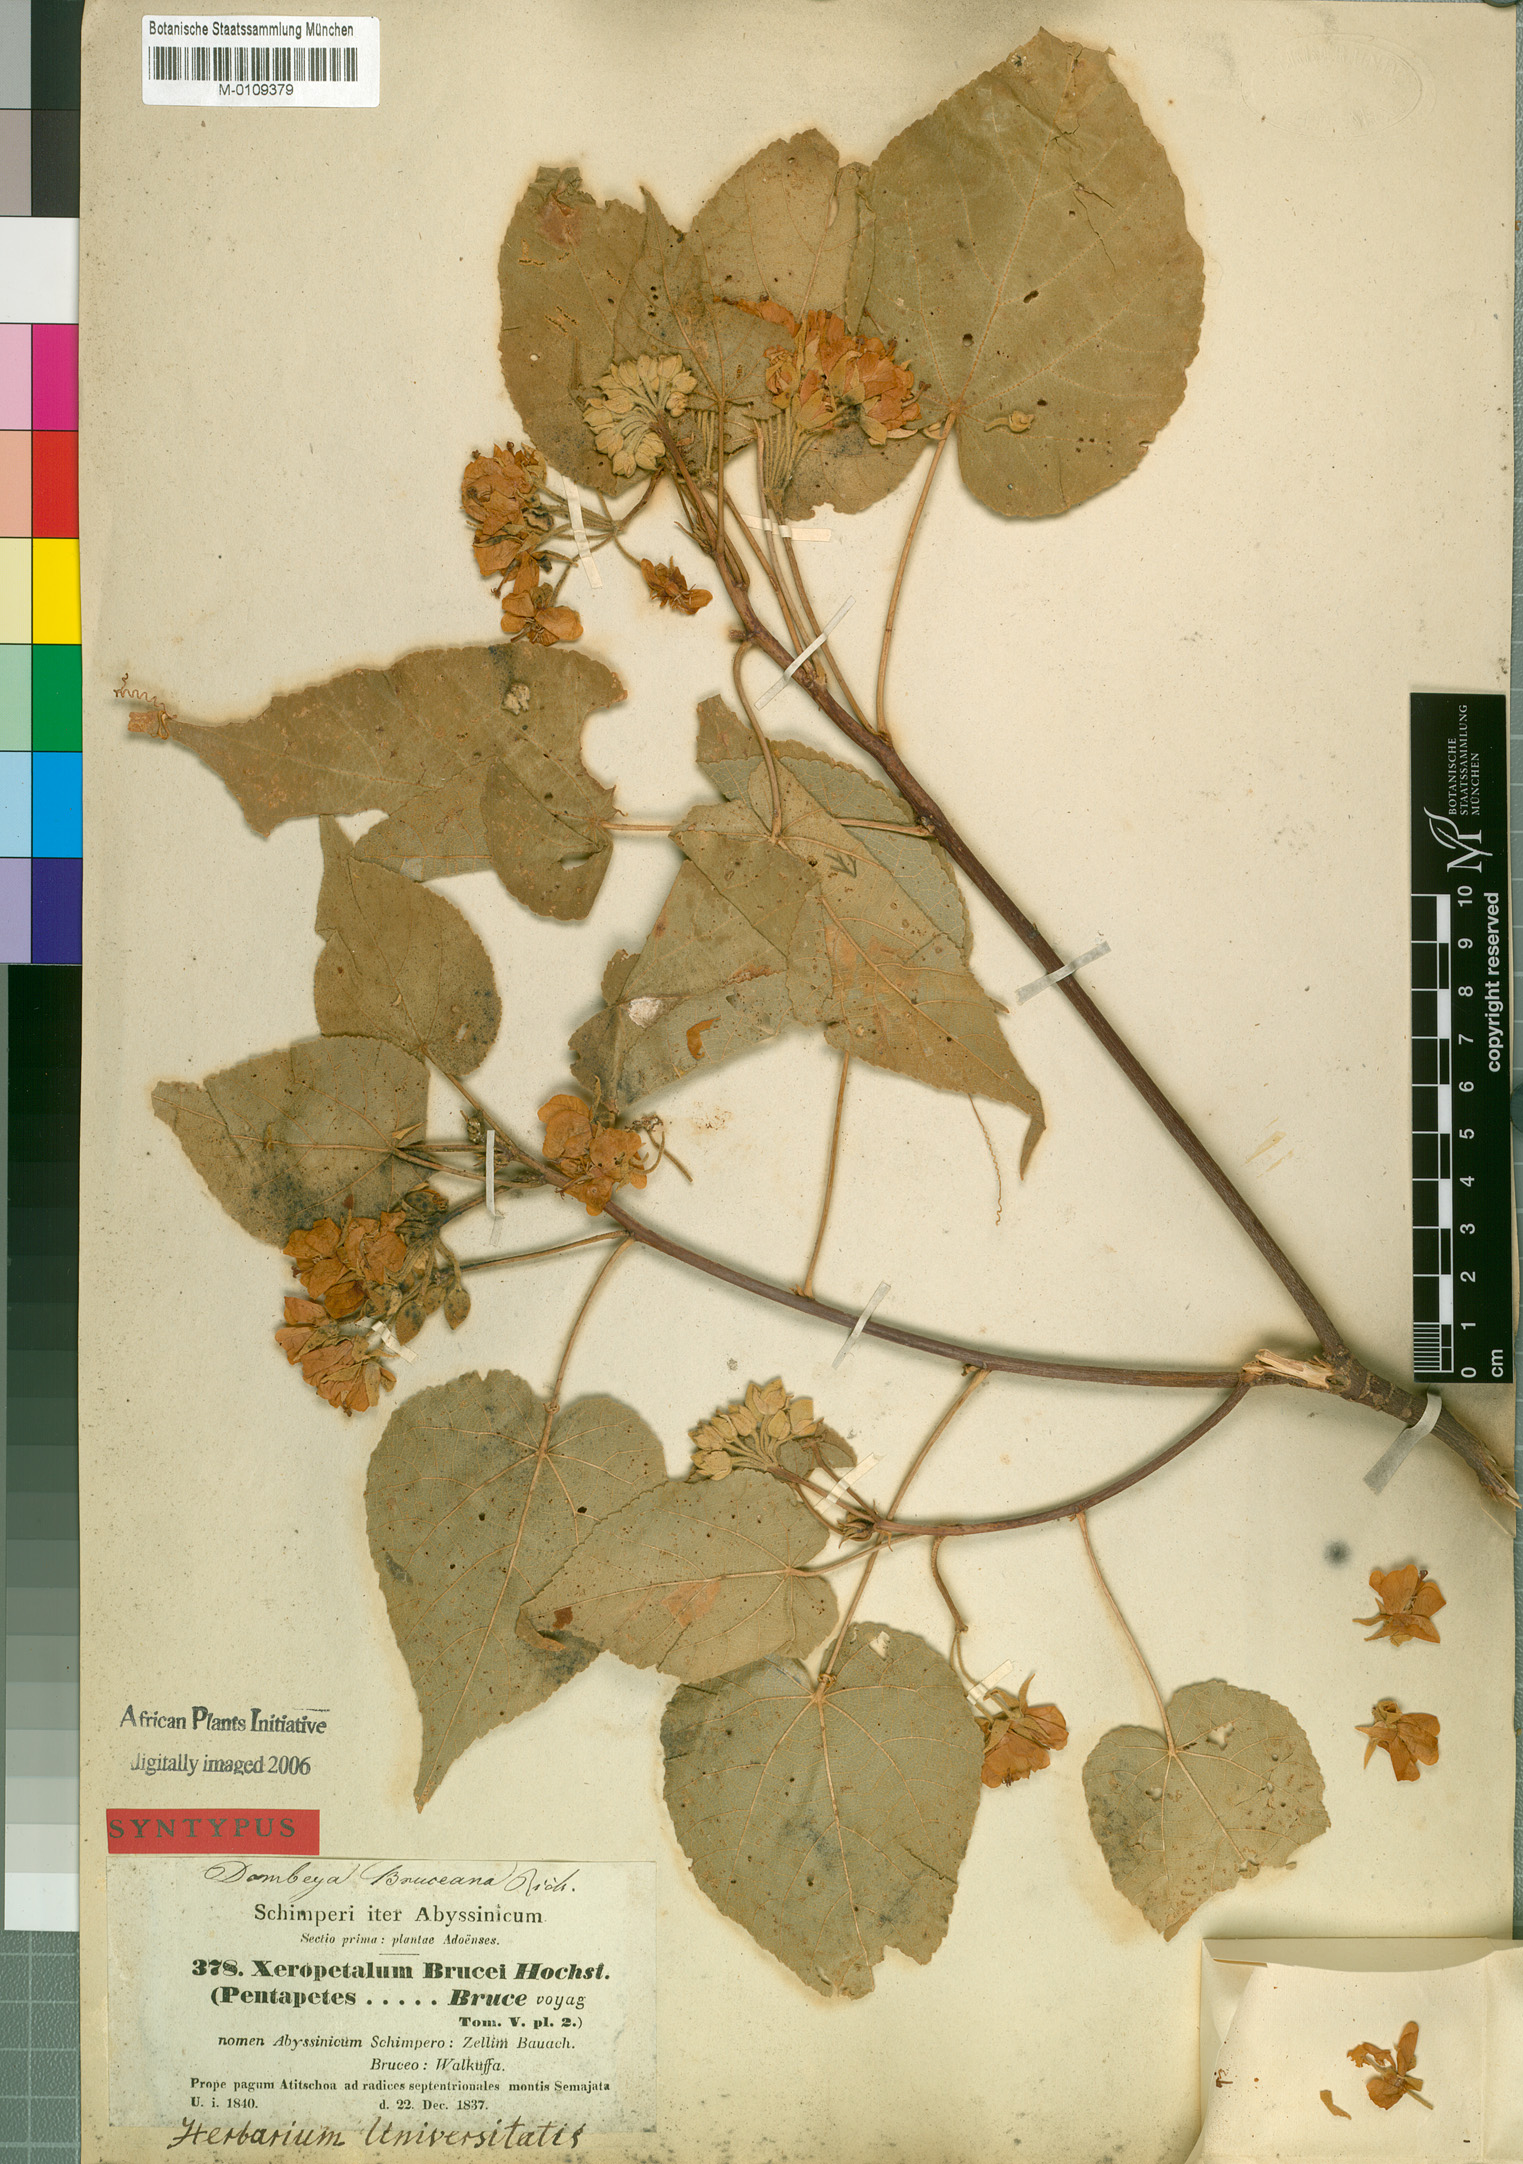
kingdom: Plantae
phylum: Tracheophyta
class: Magnoliopsida
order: Malvales
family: Malvaceae
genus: Dombeya
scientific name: Dombeya torrida
